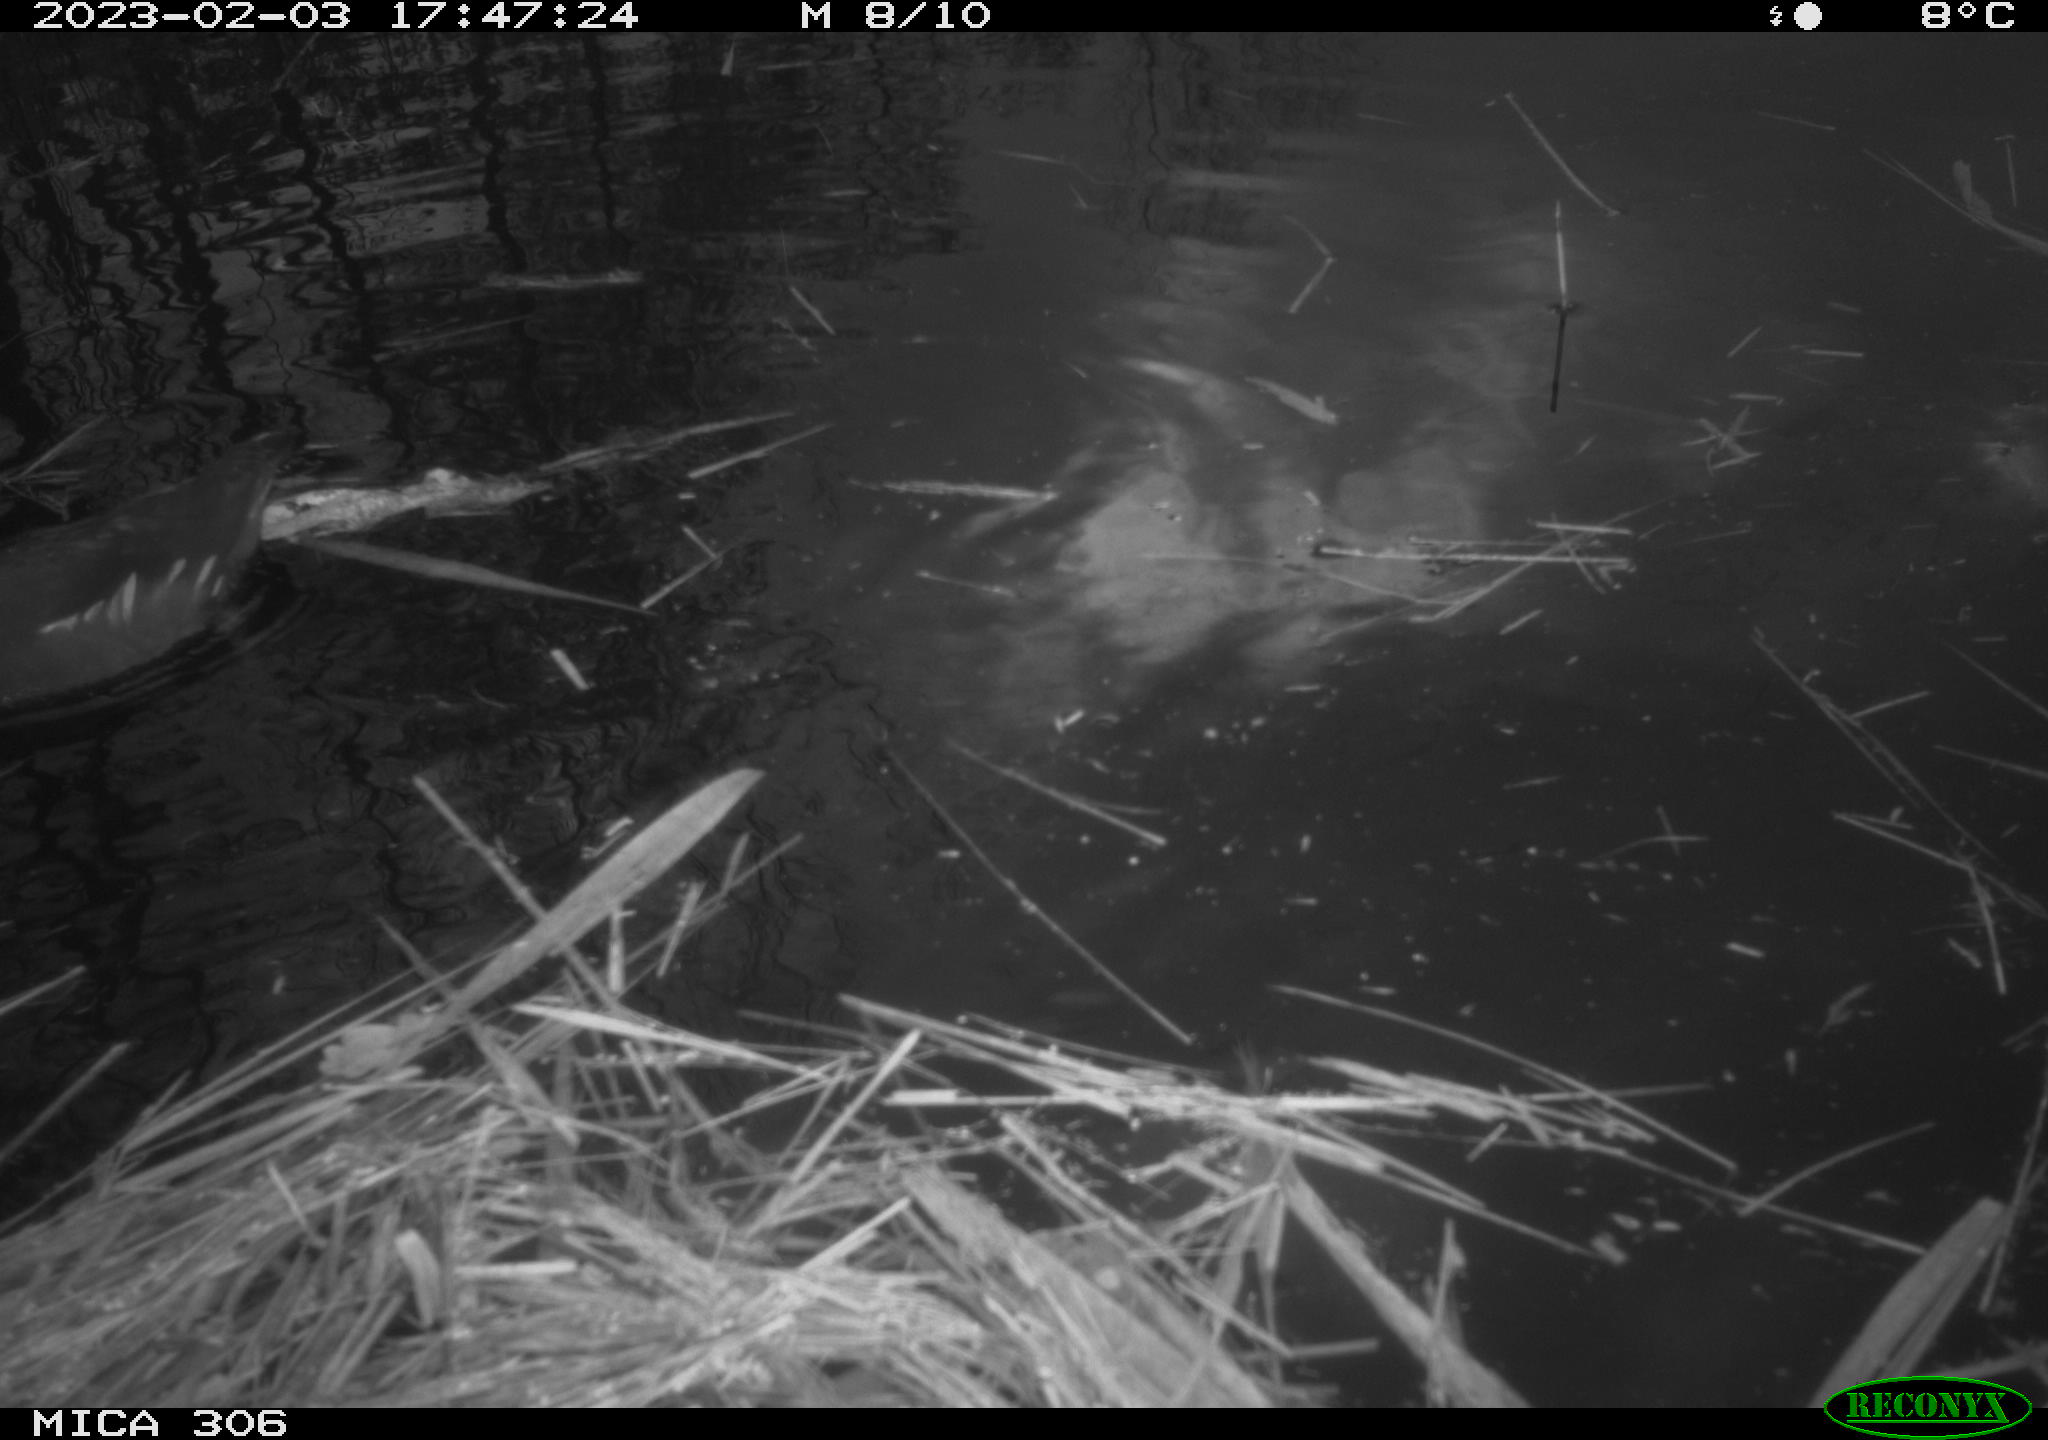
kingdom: Animalia
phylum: Chordata
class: Aves
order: Gruiformes
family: Rallidae
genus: Gallinula
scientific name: Gallinula chloropus
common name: Common moorhen
